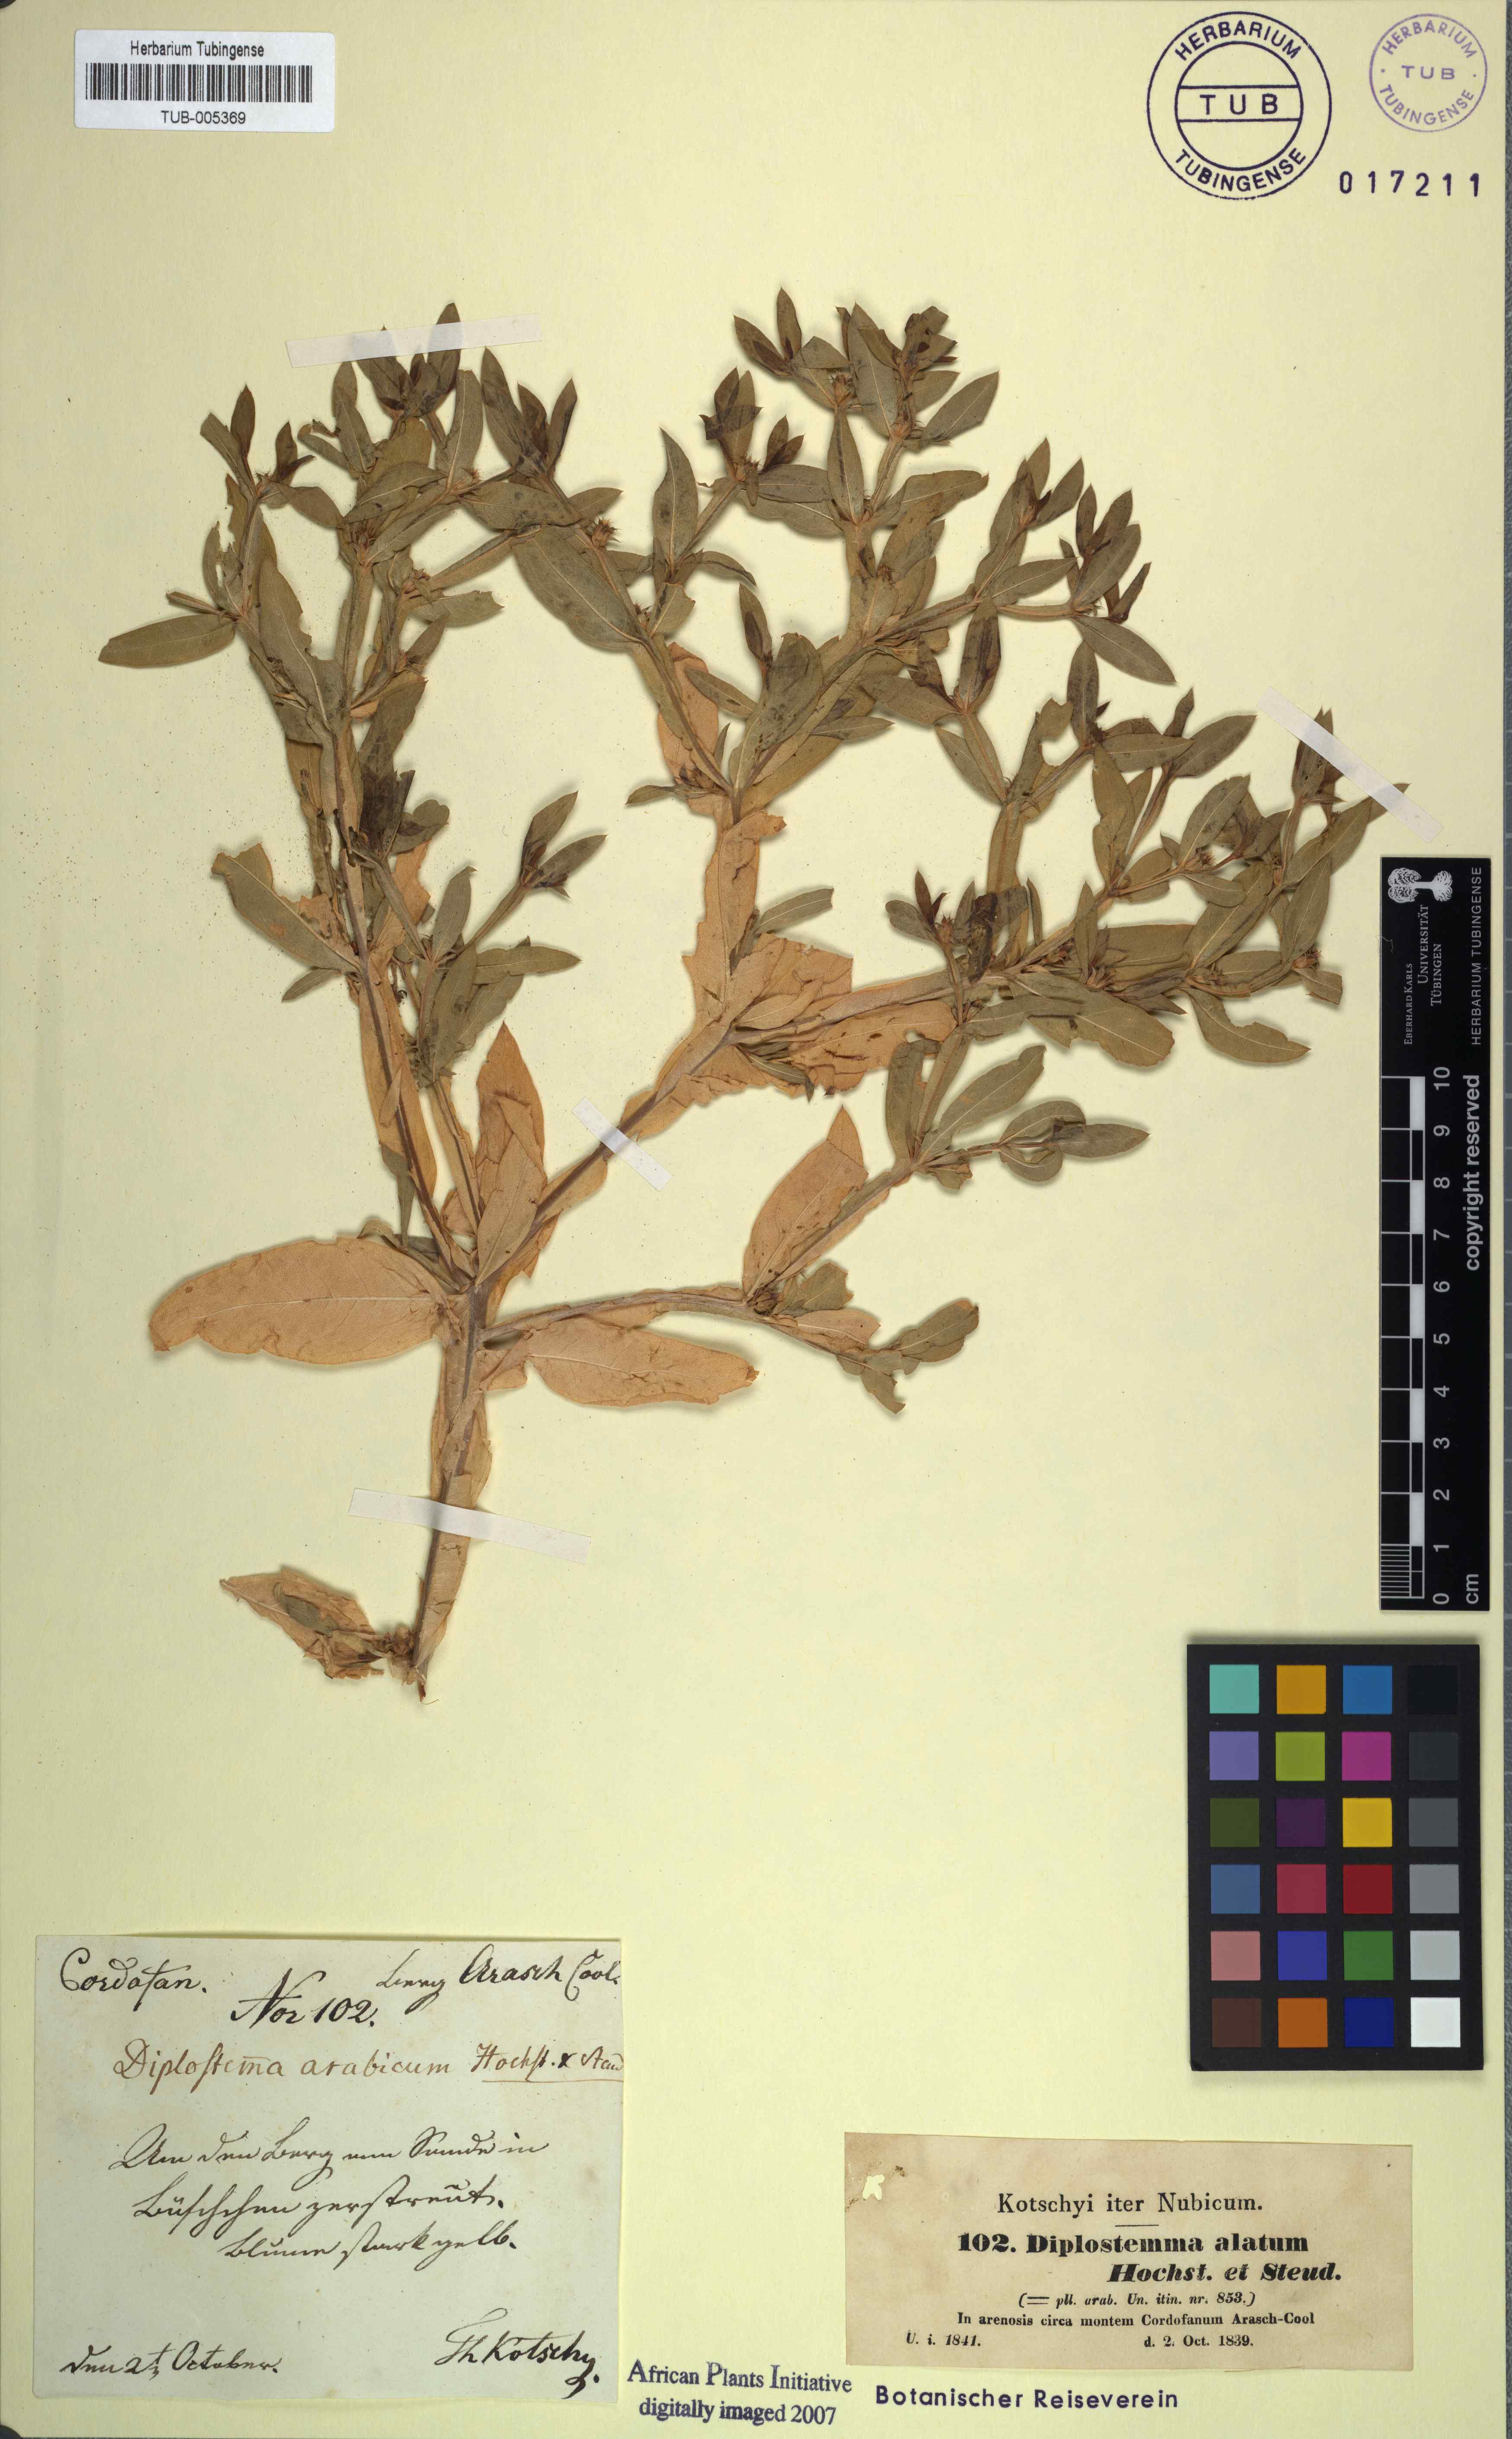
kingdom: Plantae
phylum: Tracheophyta
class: Magnoliopsida
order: Asterales
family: Asteraceae
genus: Geigeria
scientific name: Geigeria alata
